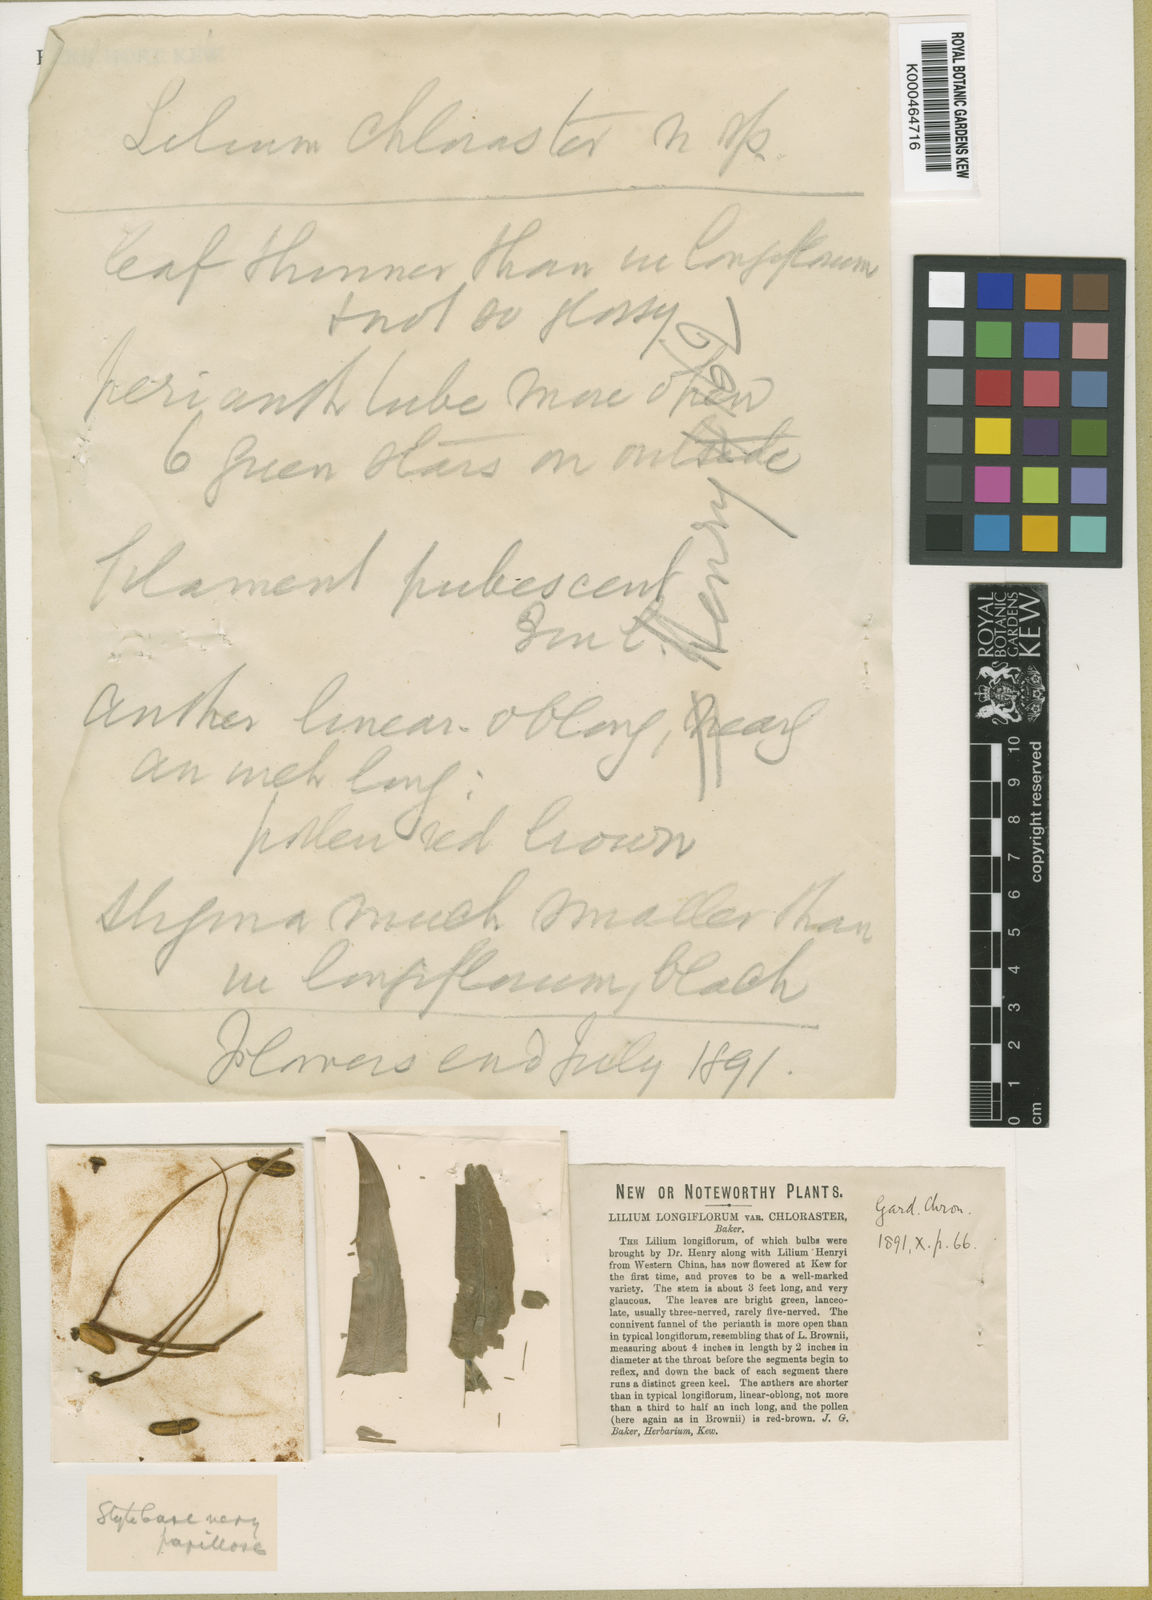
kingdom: Plantae
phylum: Tracheophyta
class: Liliopsida
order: Liliales
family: Liliaceae
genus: Lilium
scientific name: Lilium leucanthum
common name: Chinese white lily
